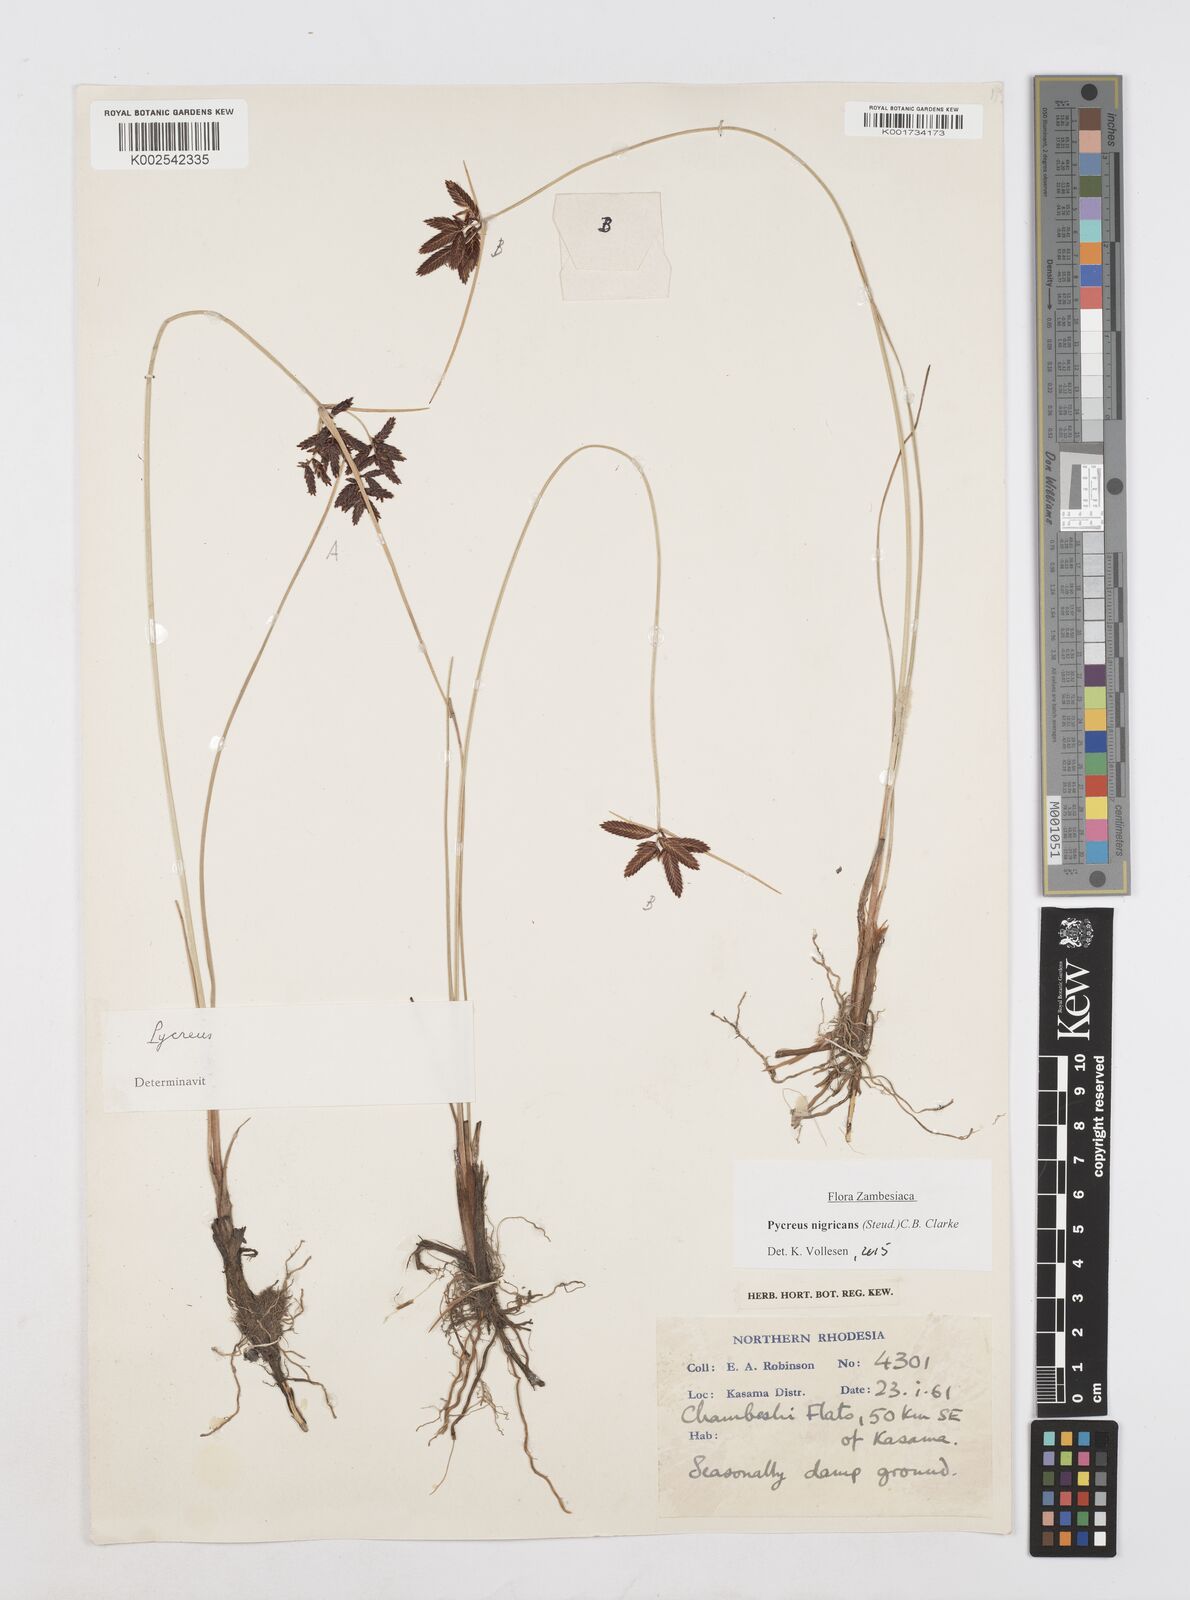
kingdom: Plantae
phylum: Tracheophyta
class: Liliopsida
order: Poales
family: Cyperaceae
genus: Cyperus
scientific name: Cyperus nigricans
